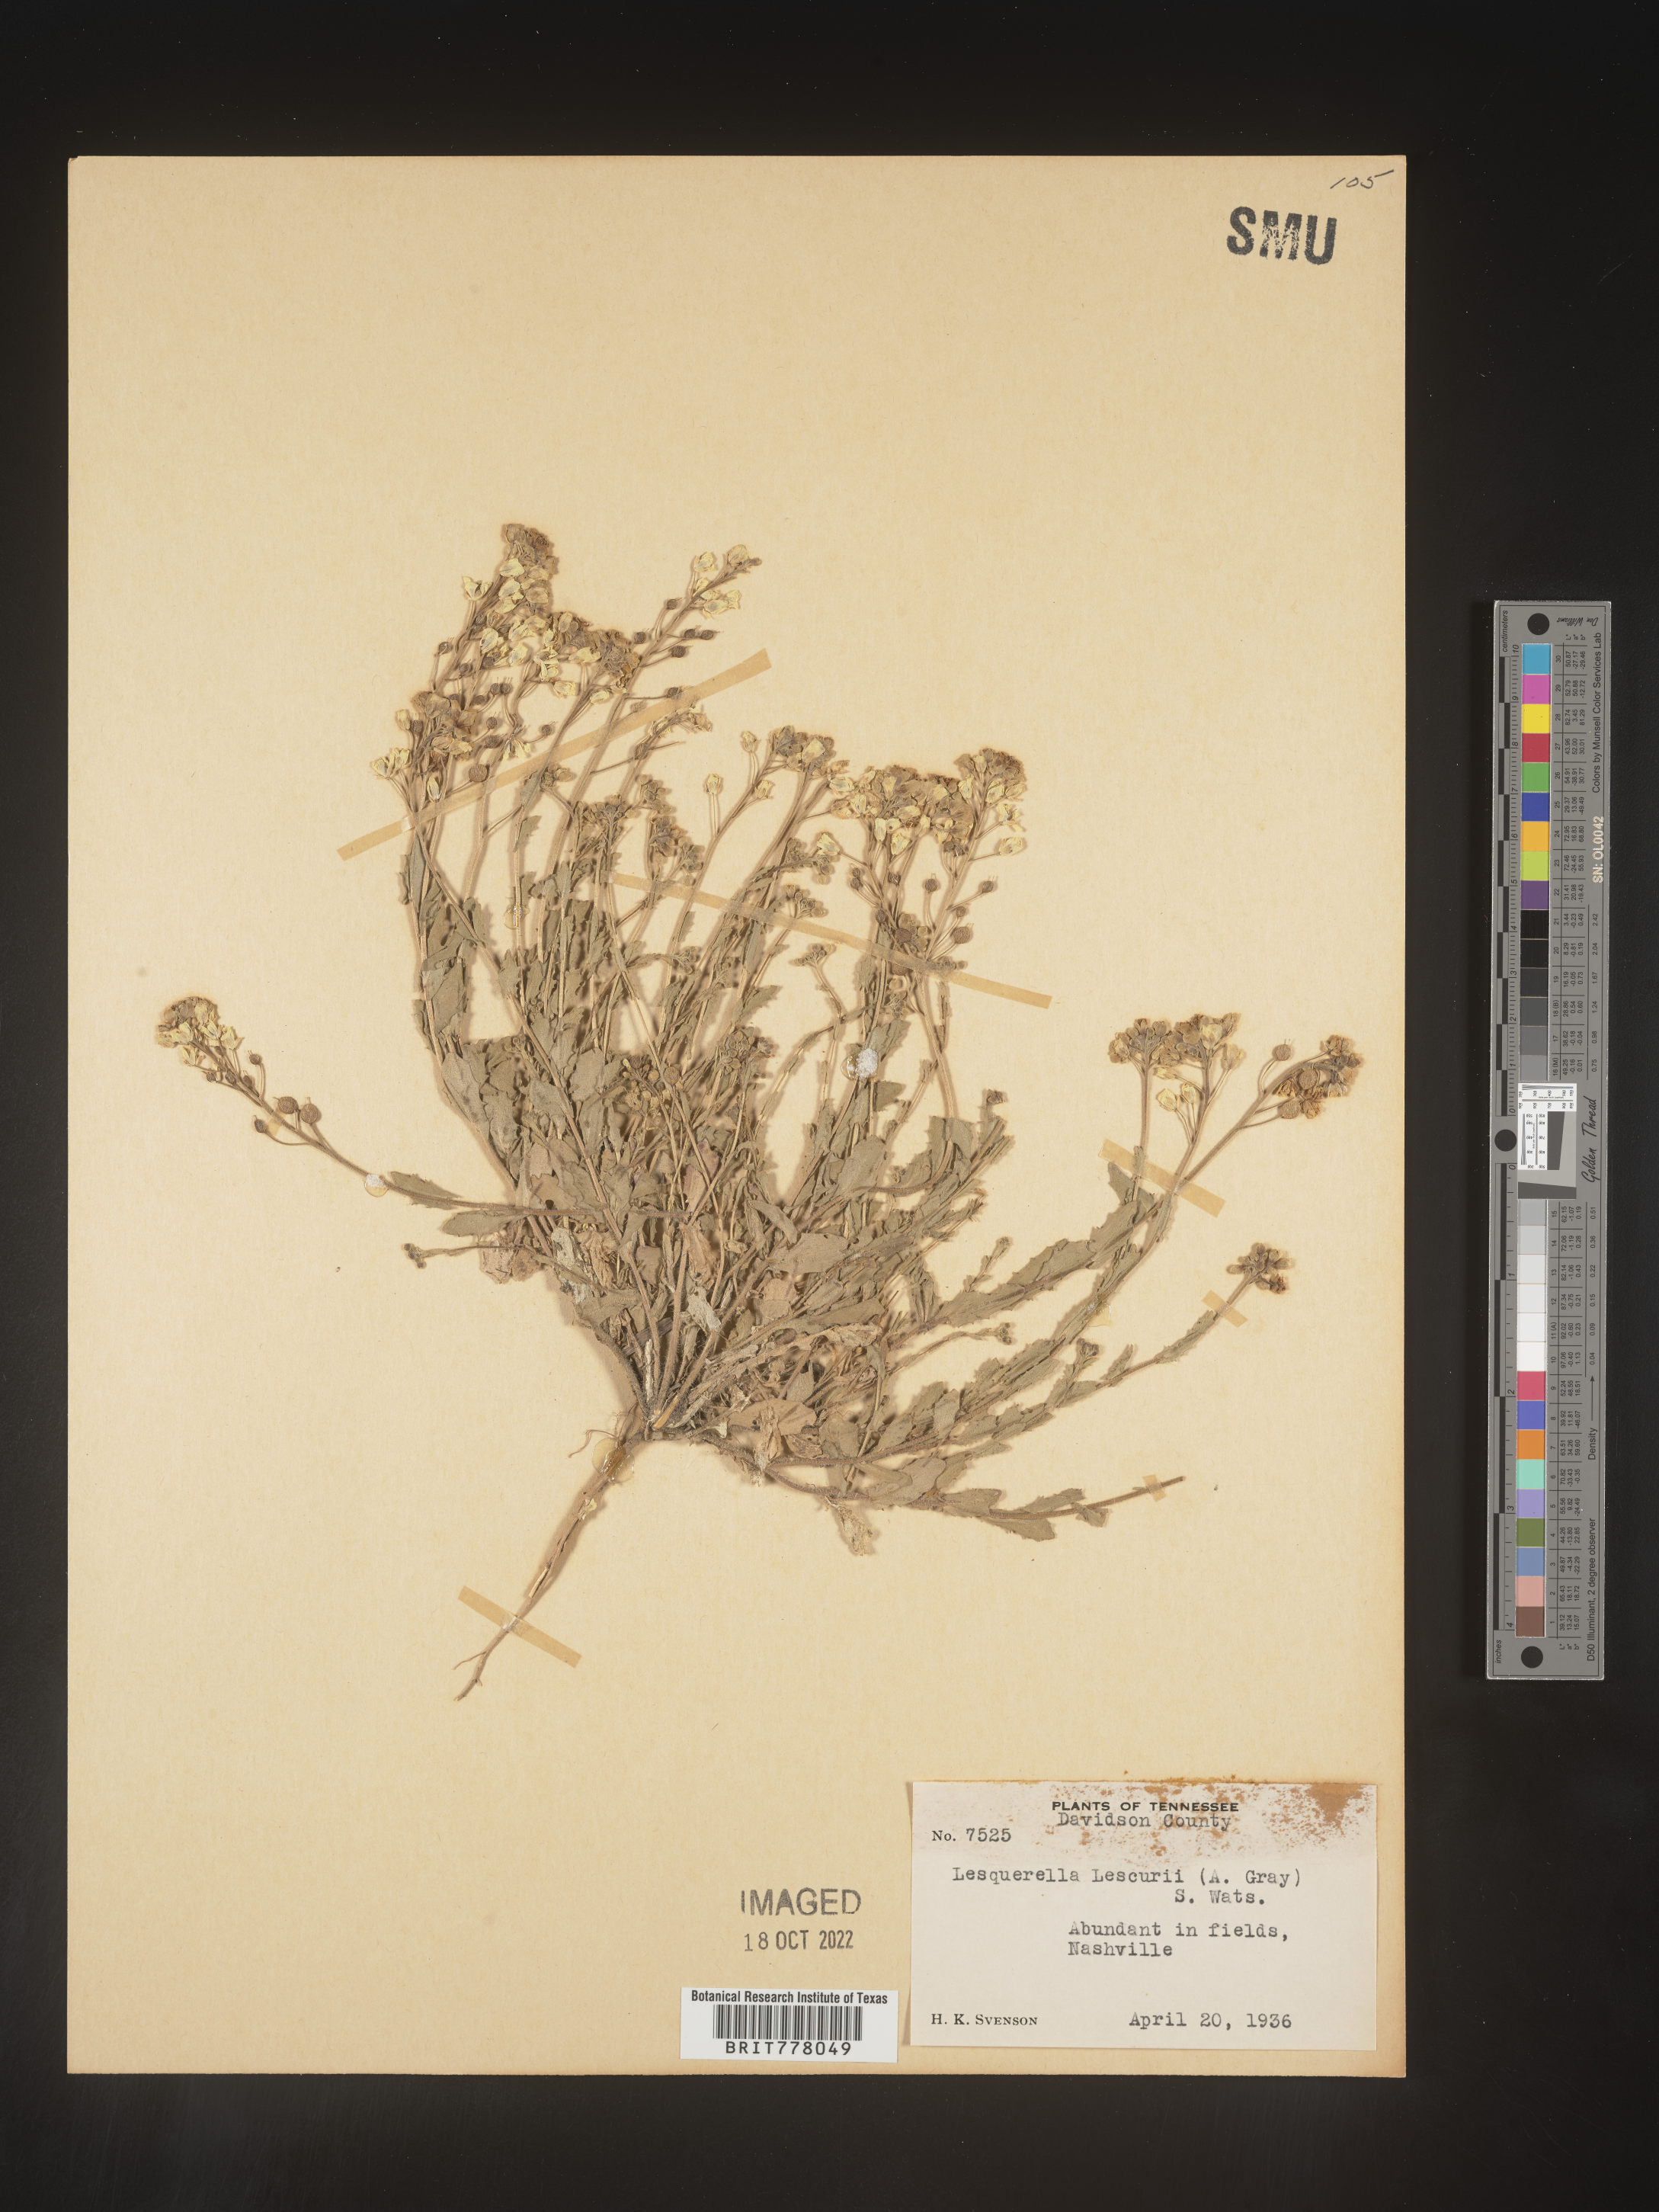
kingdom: Chromista
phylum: Cercozoa
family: Psammonobiotidae
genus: Lesquerella
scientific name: Lesquerella
